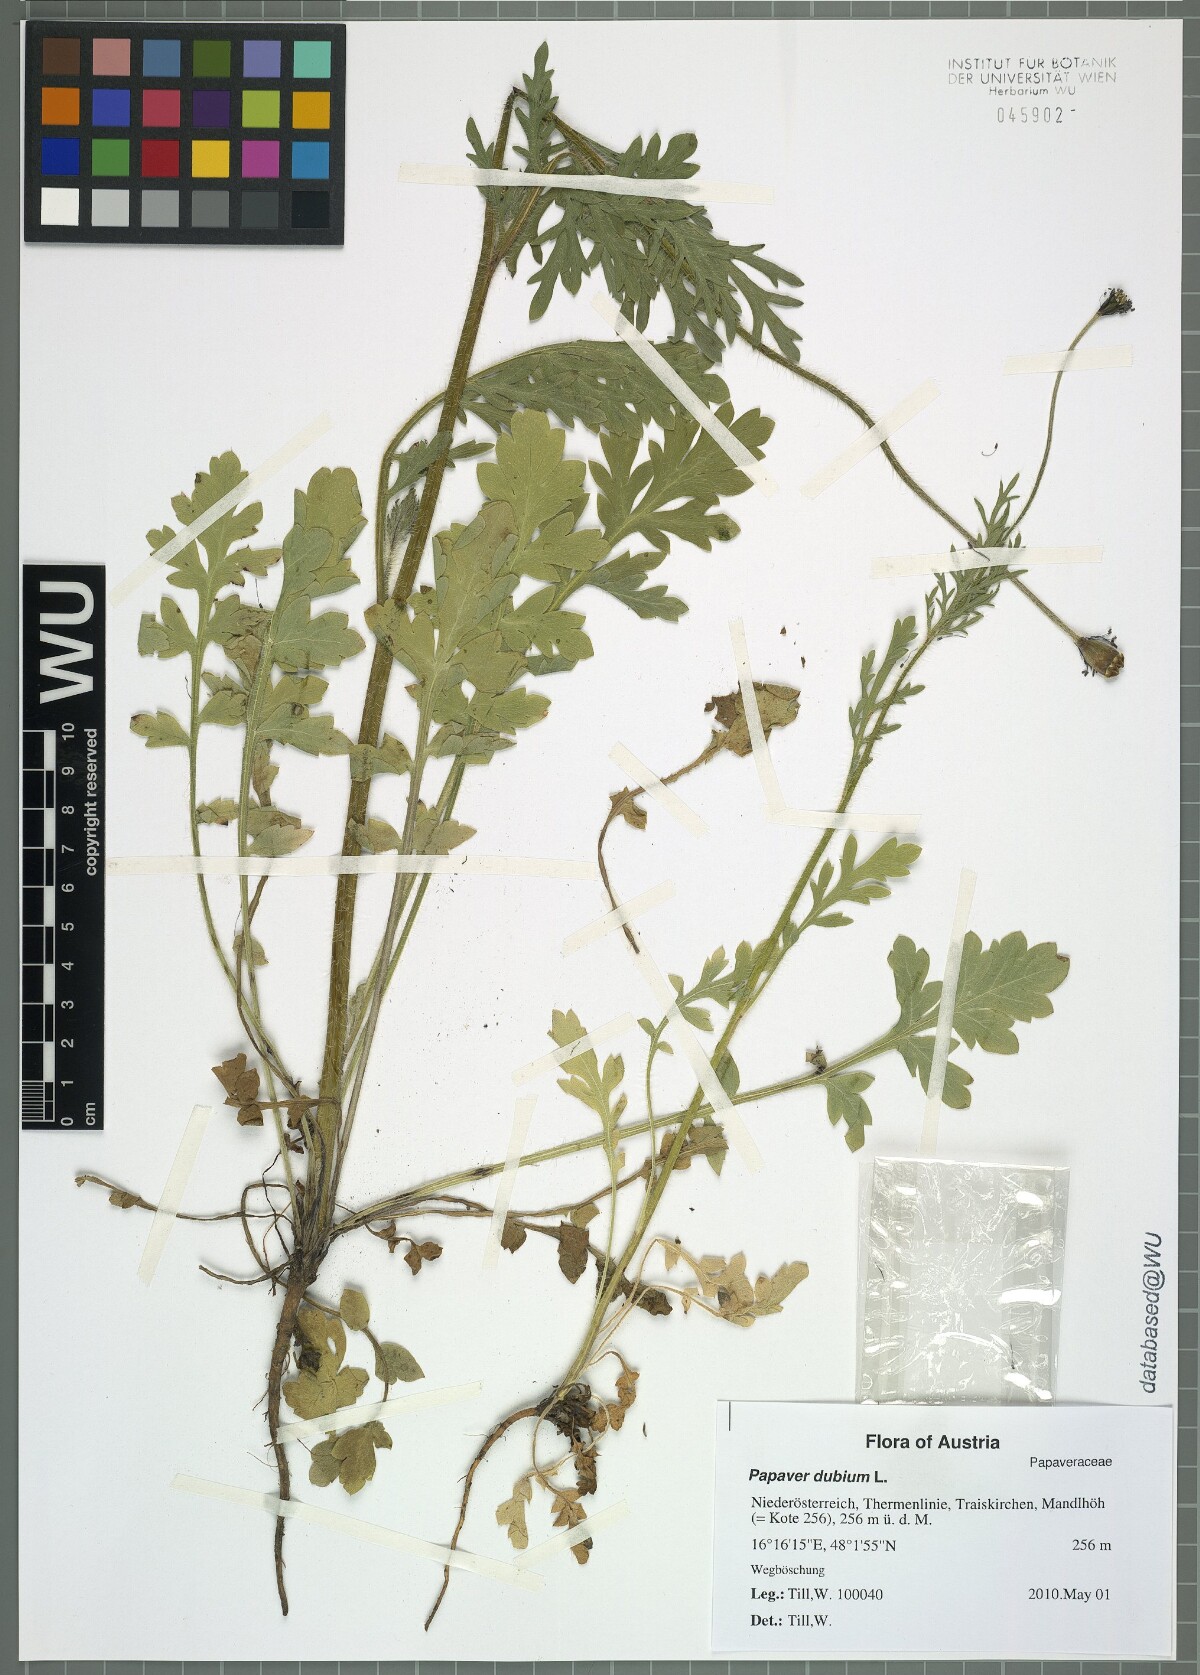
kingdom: Plantae
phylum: Tracheophyta
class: Magnoliopsida
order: Ranunculales
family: Papaveraceae
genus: Papaver
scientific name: Papaver dubium
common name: Long-headed poppy
